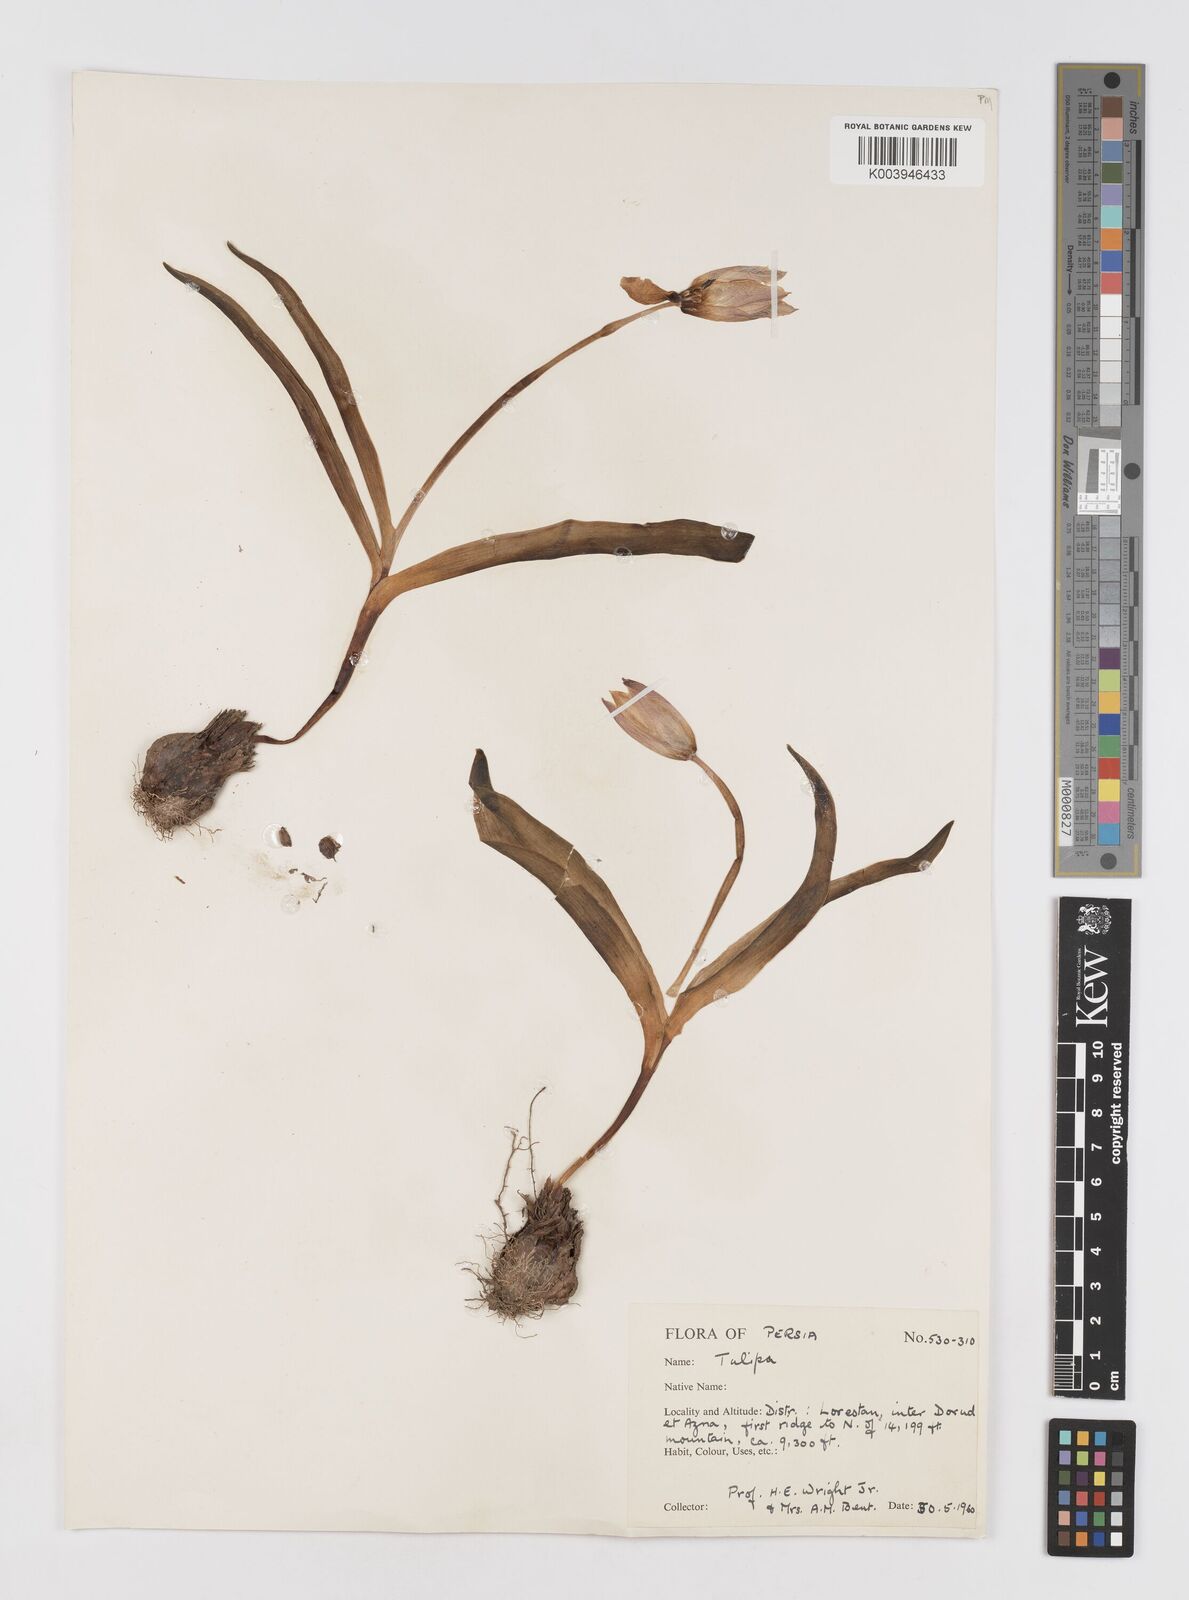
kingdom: Plantae
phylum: Tracheophyta
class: Liliopsida
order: Liliales
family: Liliaceae
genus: Tulipa
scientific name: Tulipa
